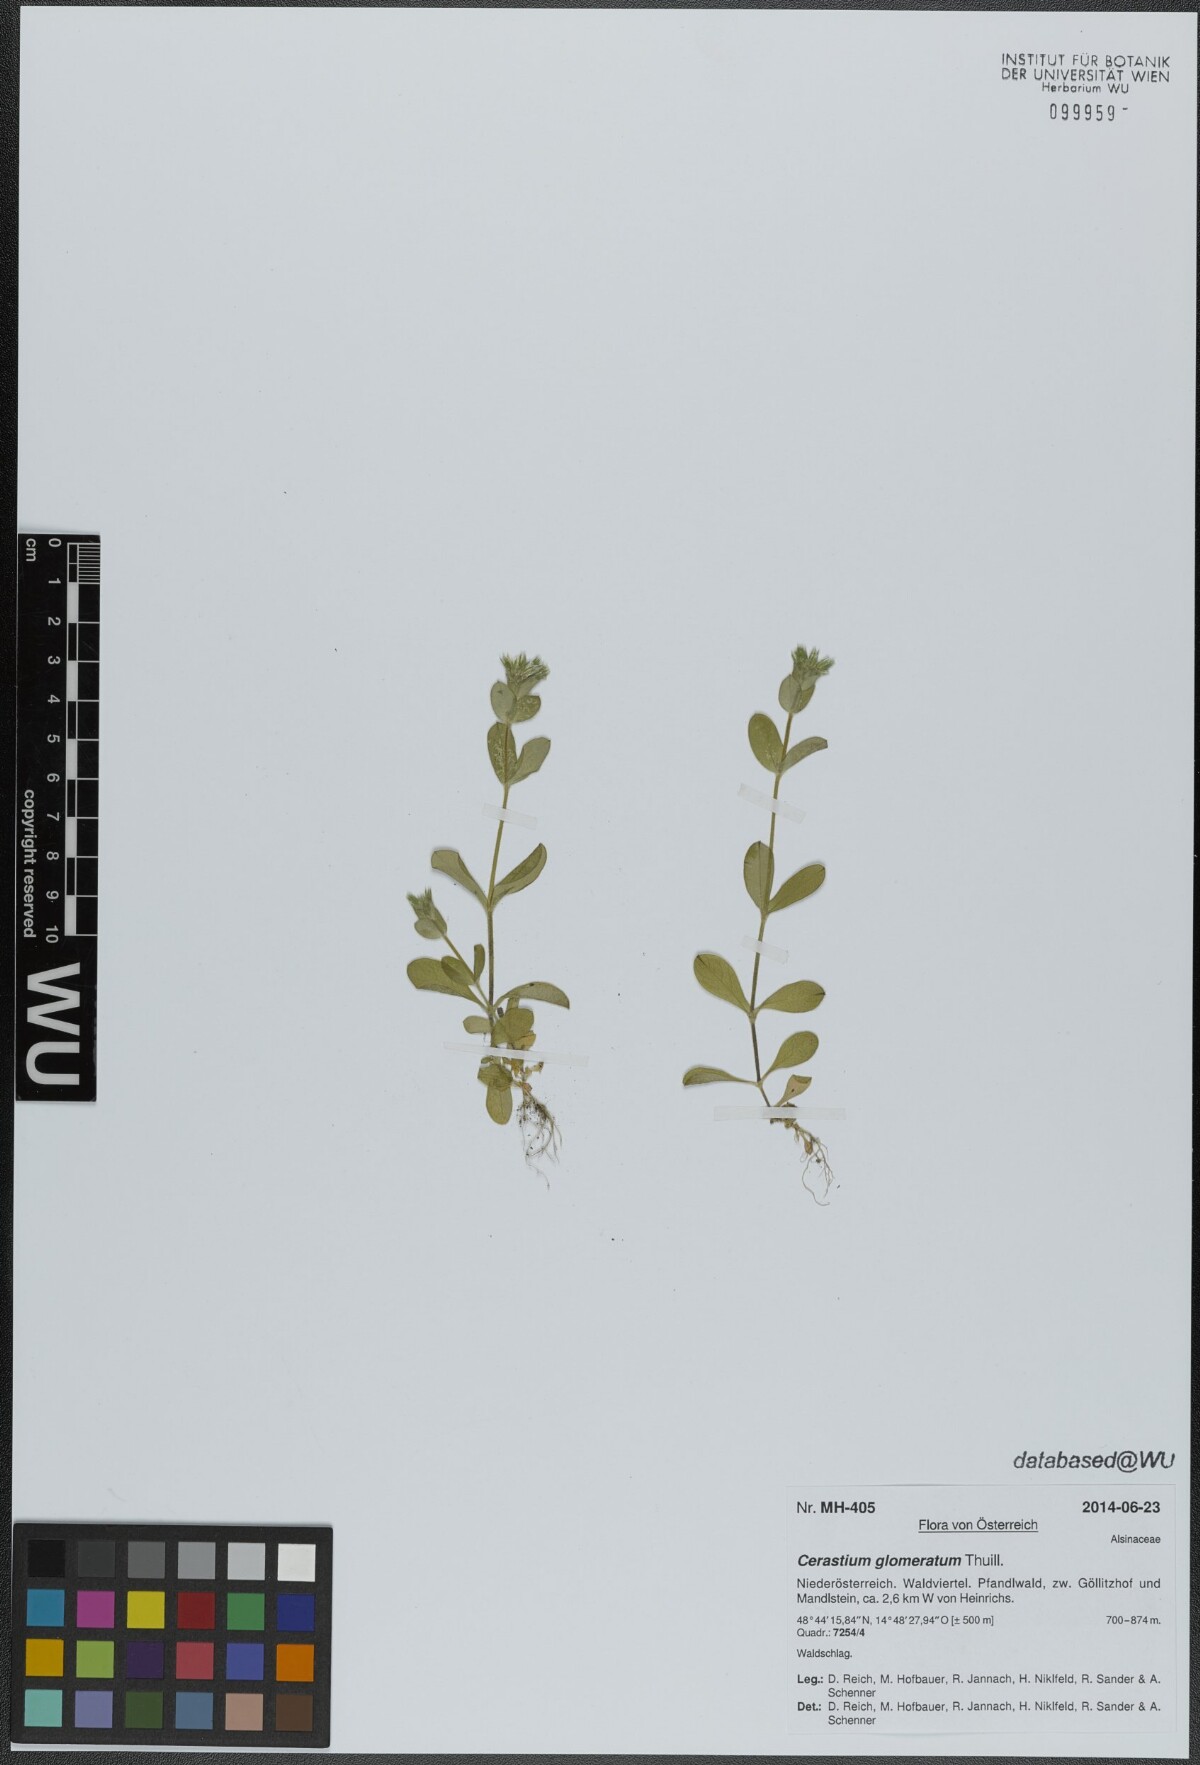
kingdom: Plantae
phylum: Tracheophyta
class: Magnoliopsida
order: Caryophyllales
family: Caryophyllaceae
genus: Cerastium
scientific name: Cerastium glomeratum
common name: Sticky chickweed
